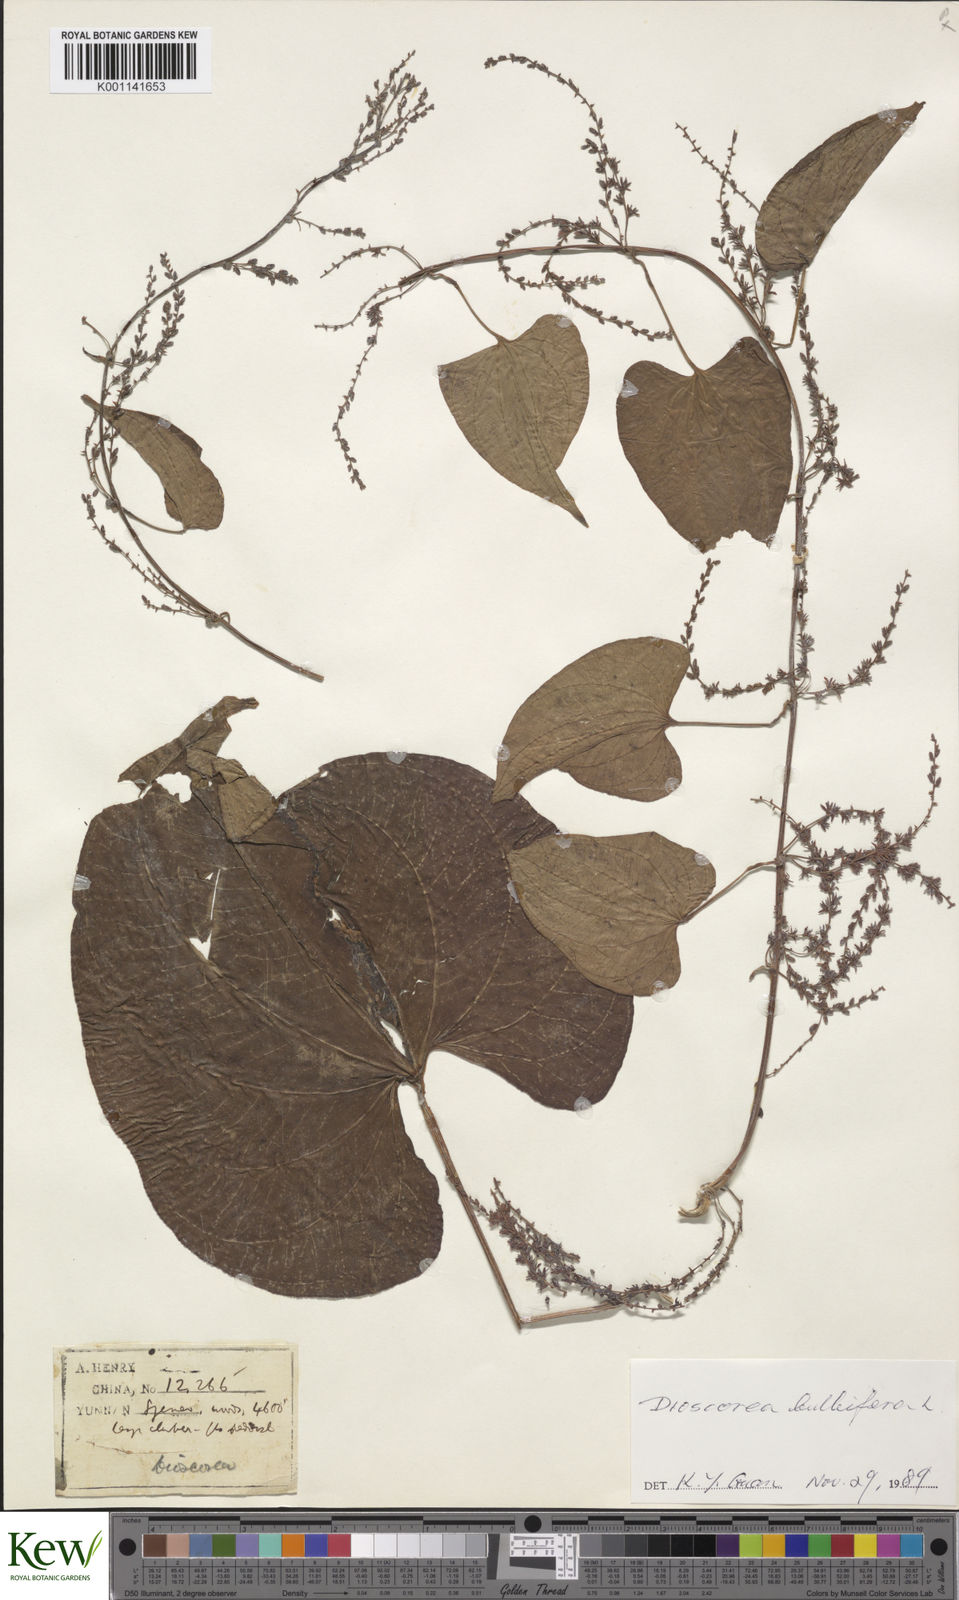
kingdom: Plantae
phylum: Tracheophyta
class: Liliopsida
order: Dioscoreales
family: Dioscoreaceae
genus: Dioscorea
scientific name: Dioscorea bulbifera
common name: Air yam
